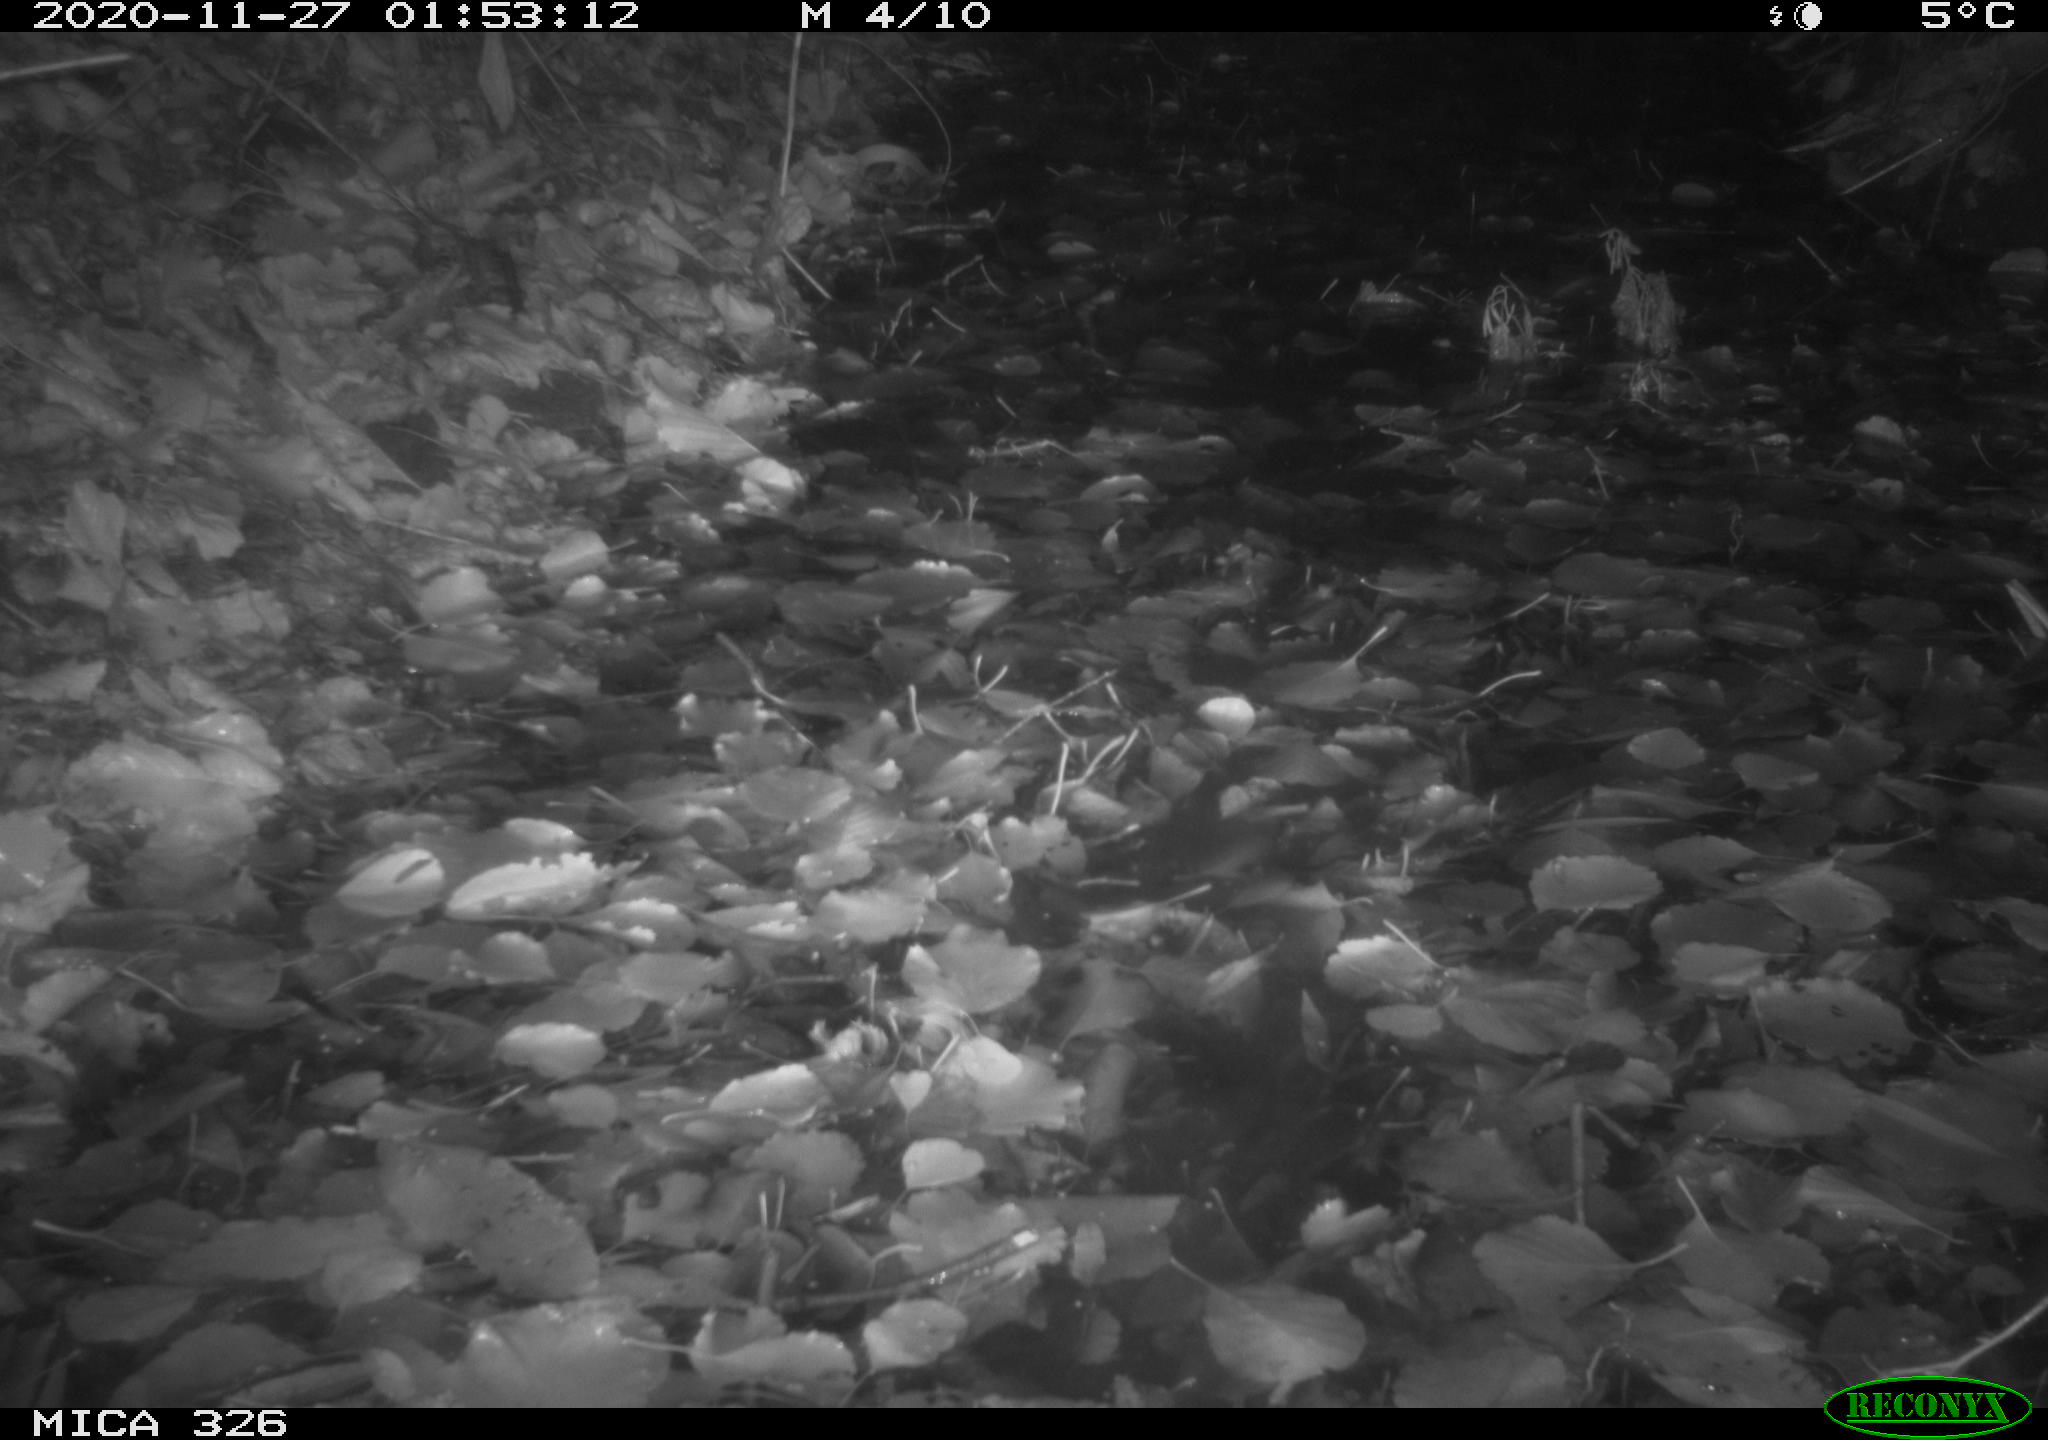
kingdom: Animalia
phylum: Chordata
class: Mammalia
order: Rodentia
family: Myocastoridae
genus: Myocastor
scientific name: Myocastor coypus
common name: Coypu
